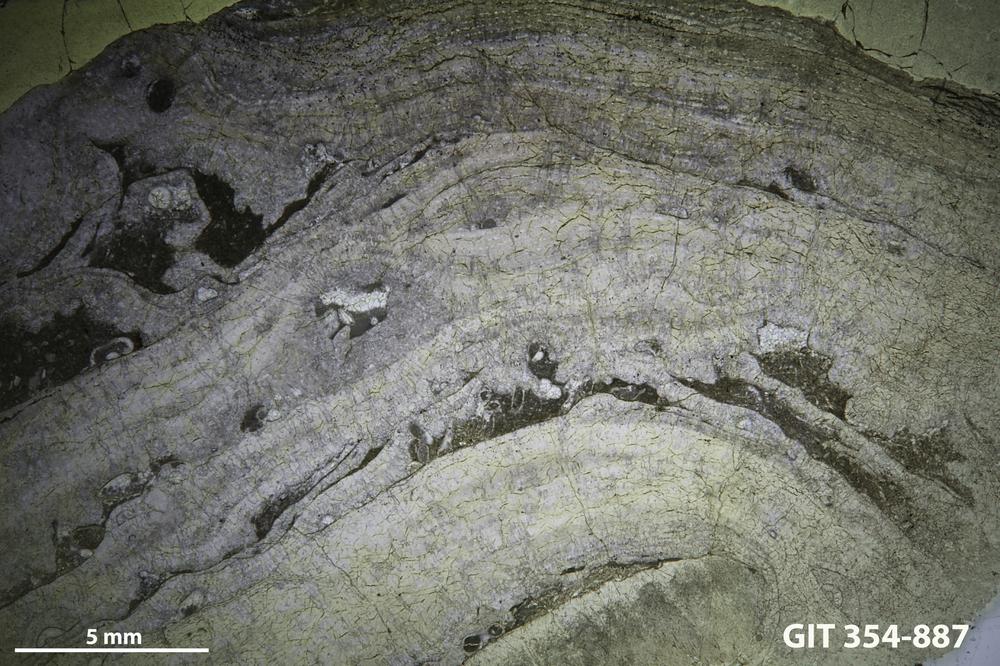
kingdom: Animalia
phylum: Porifera
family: Stromatoporidae
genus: Parallelostroma
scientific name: Parallelostroma
